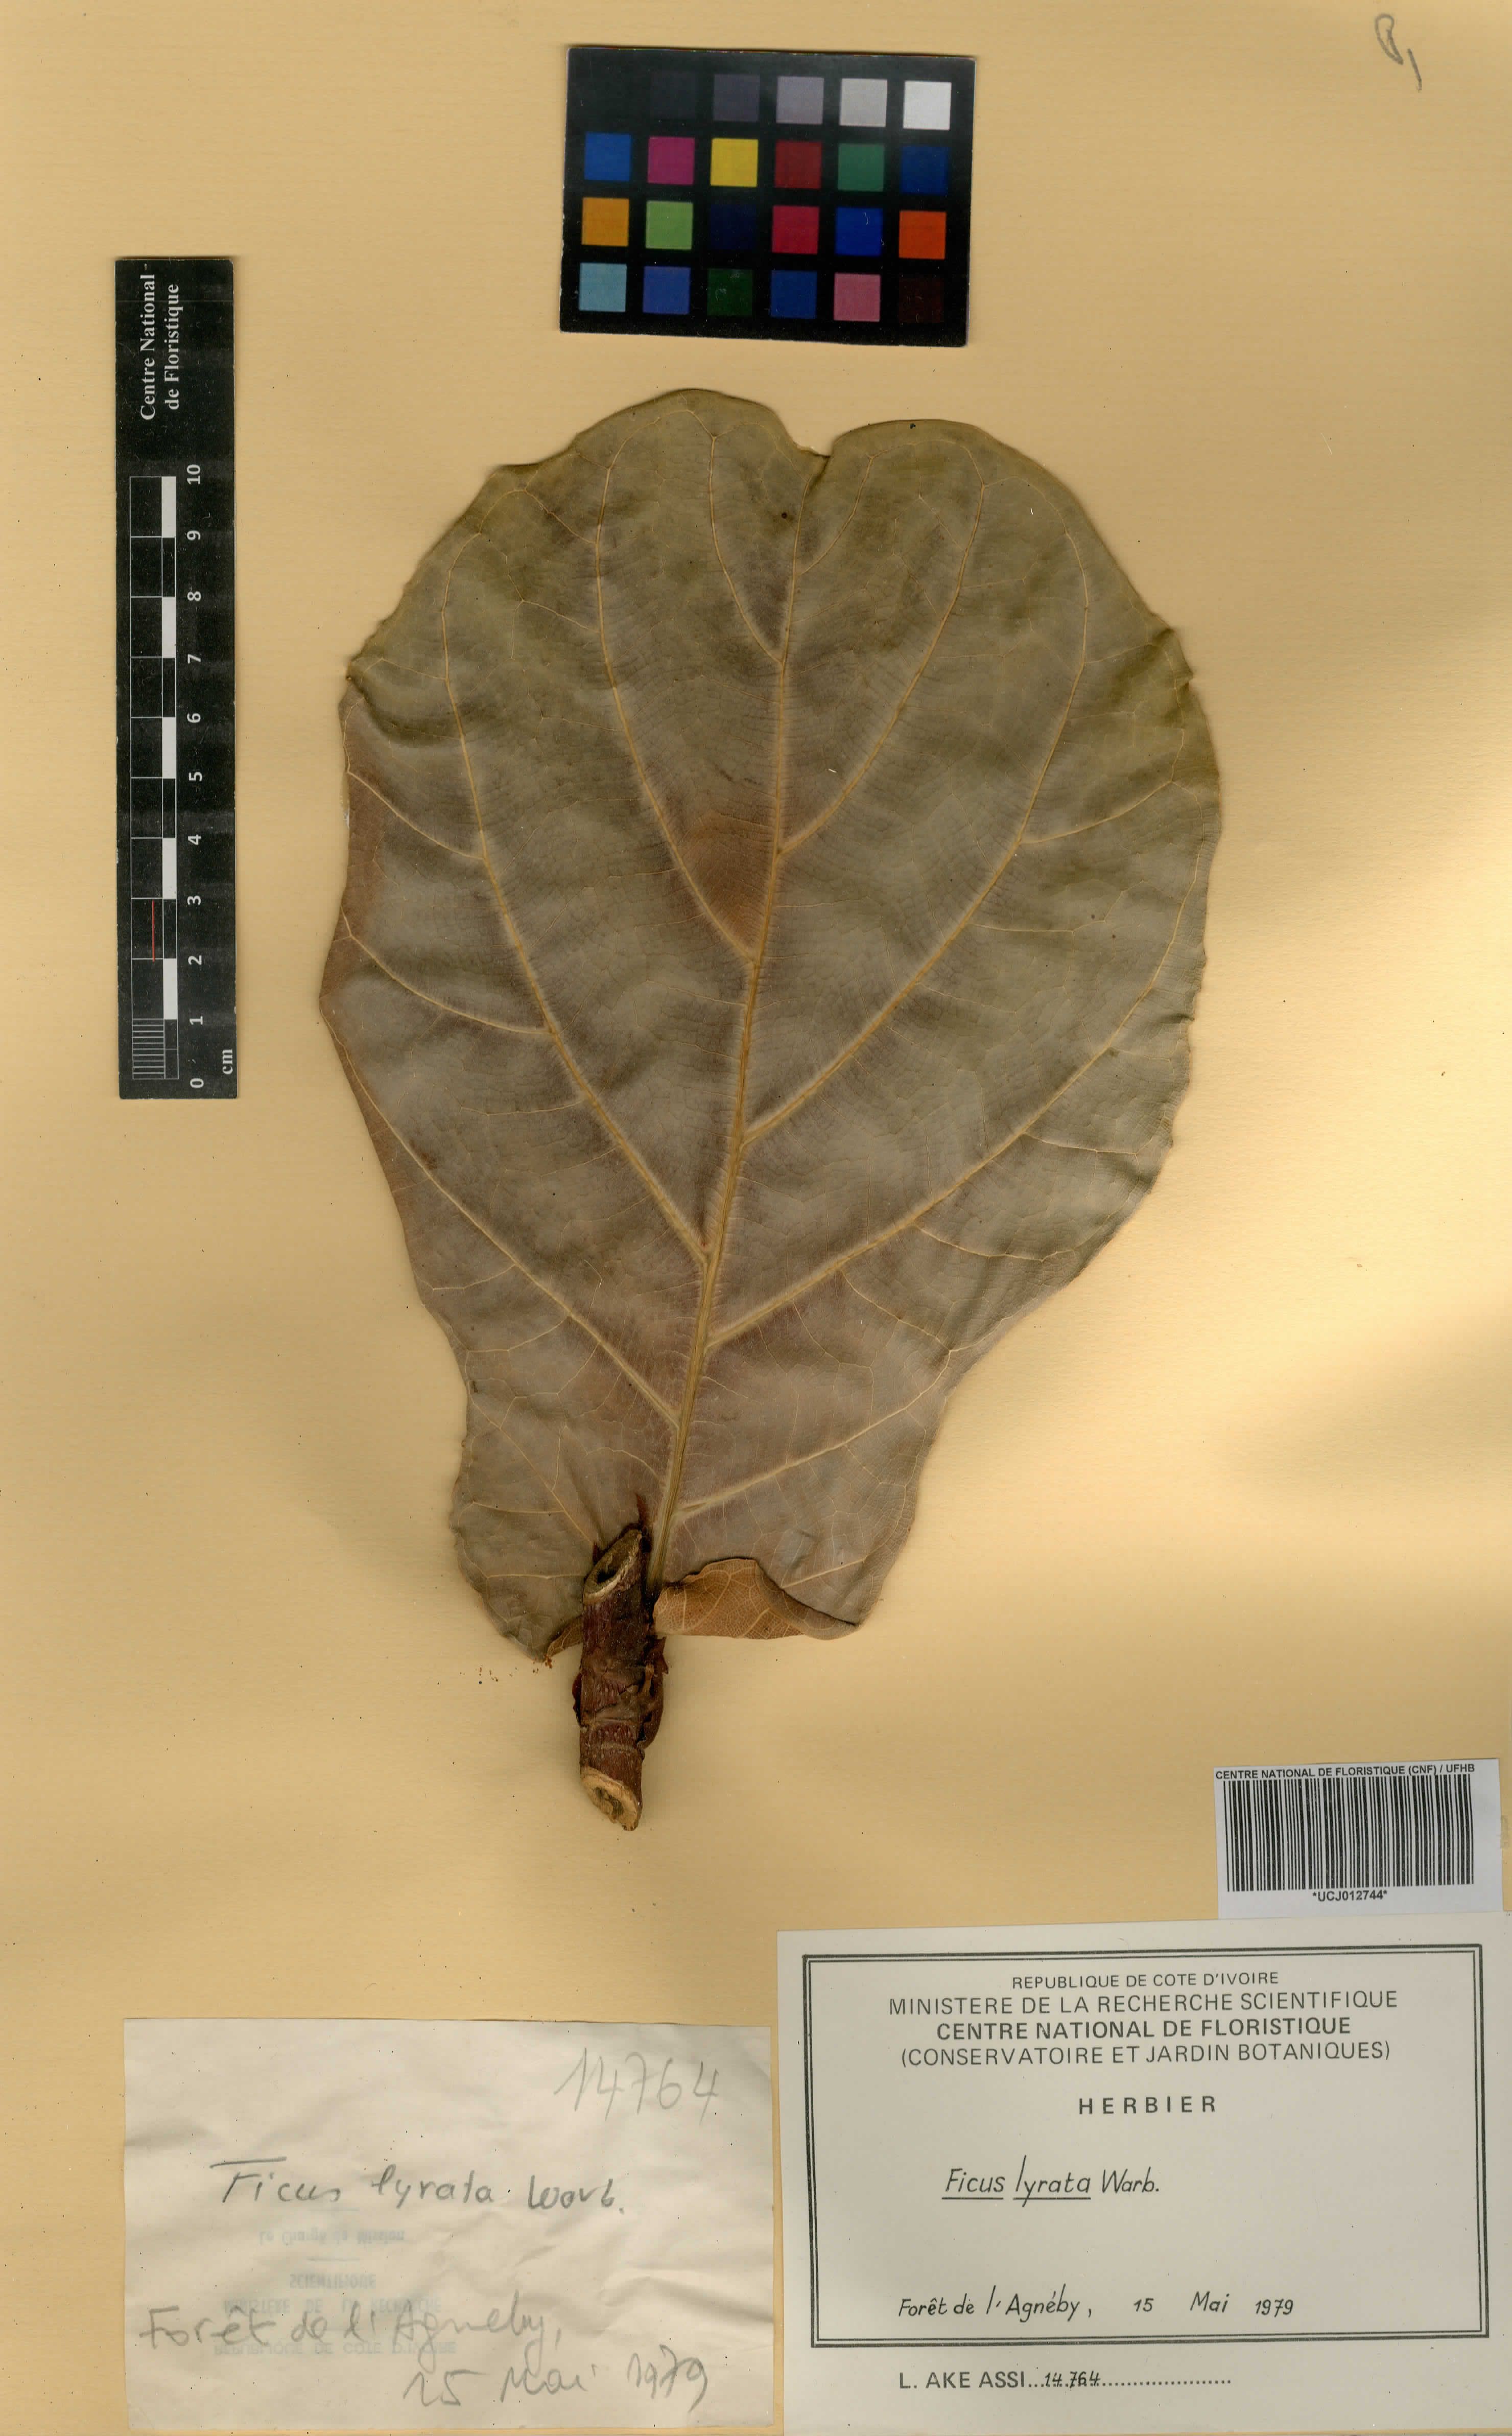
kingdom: Plantae
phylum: Tracheophyta
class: Magnoliopsida
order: Rosales
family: Moraceae
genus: Ficus
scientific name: Ficus lyrata
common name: Fiddle-leaf fig
